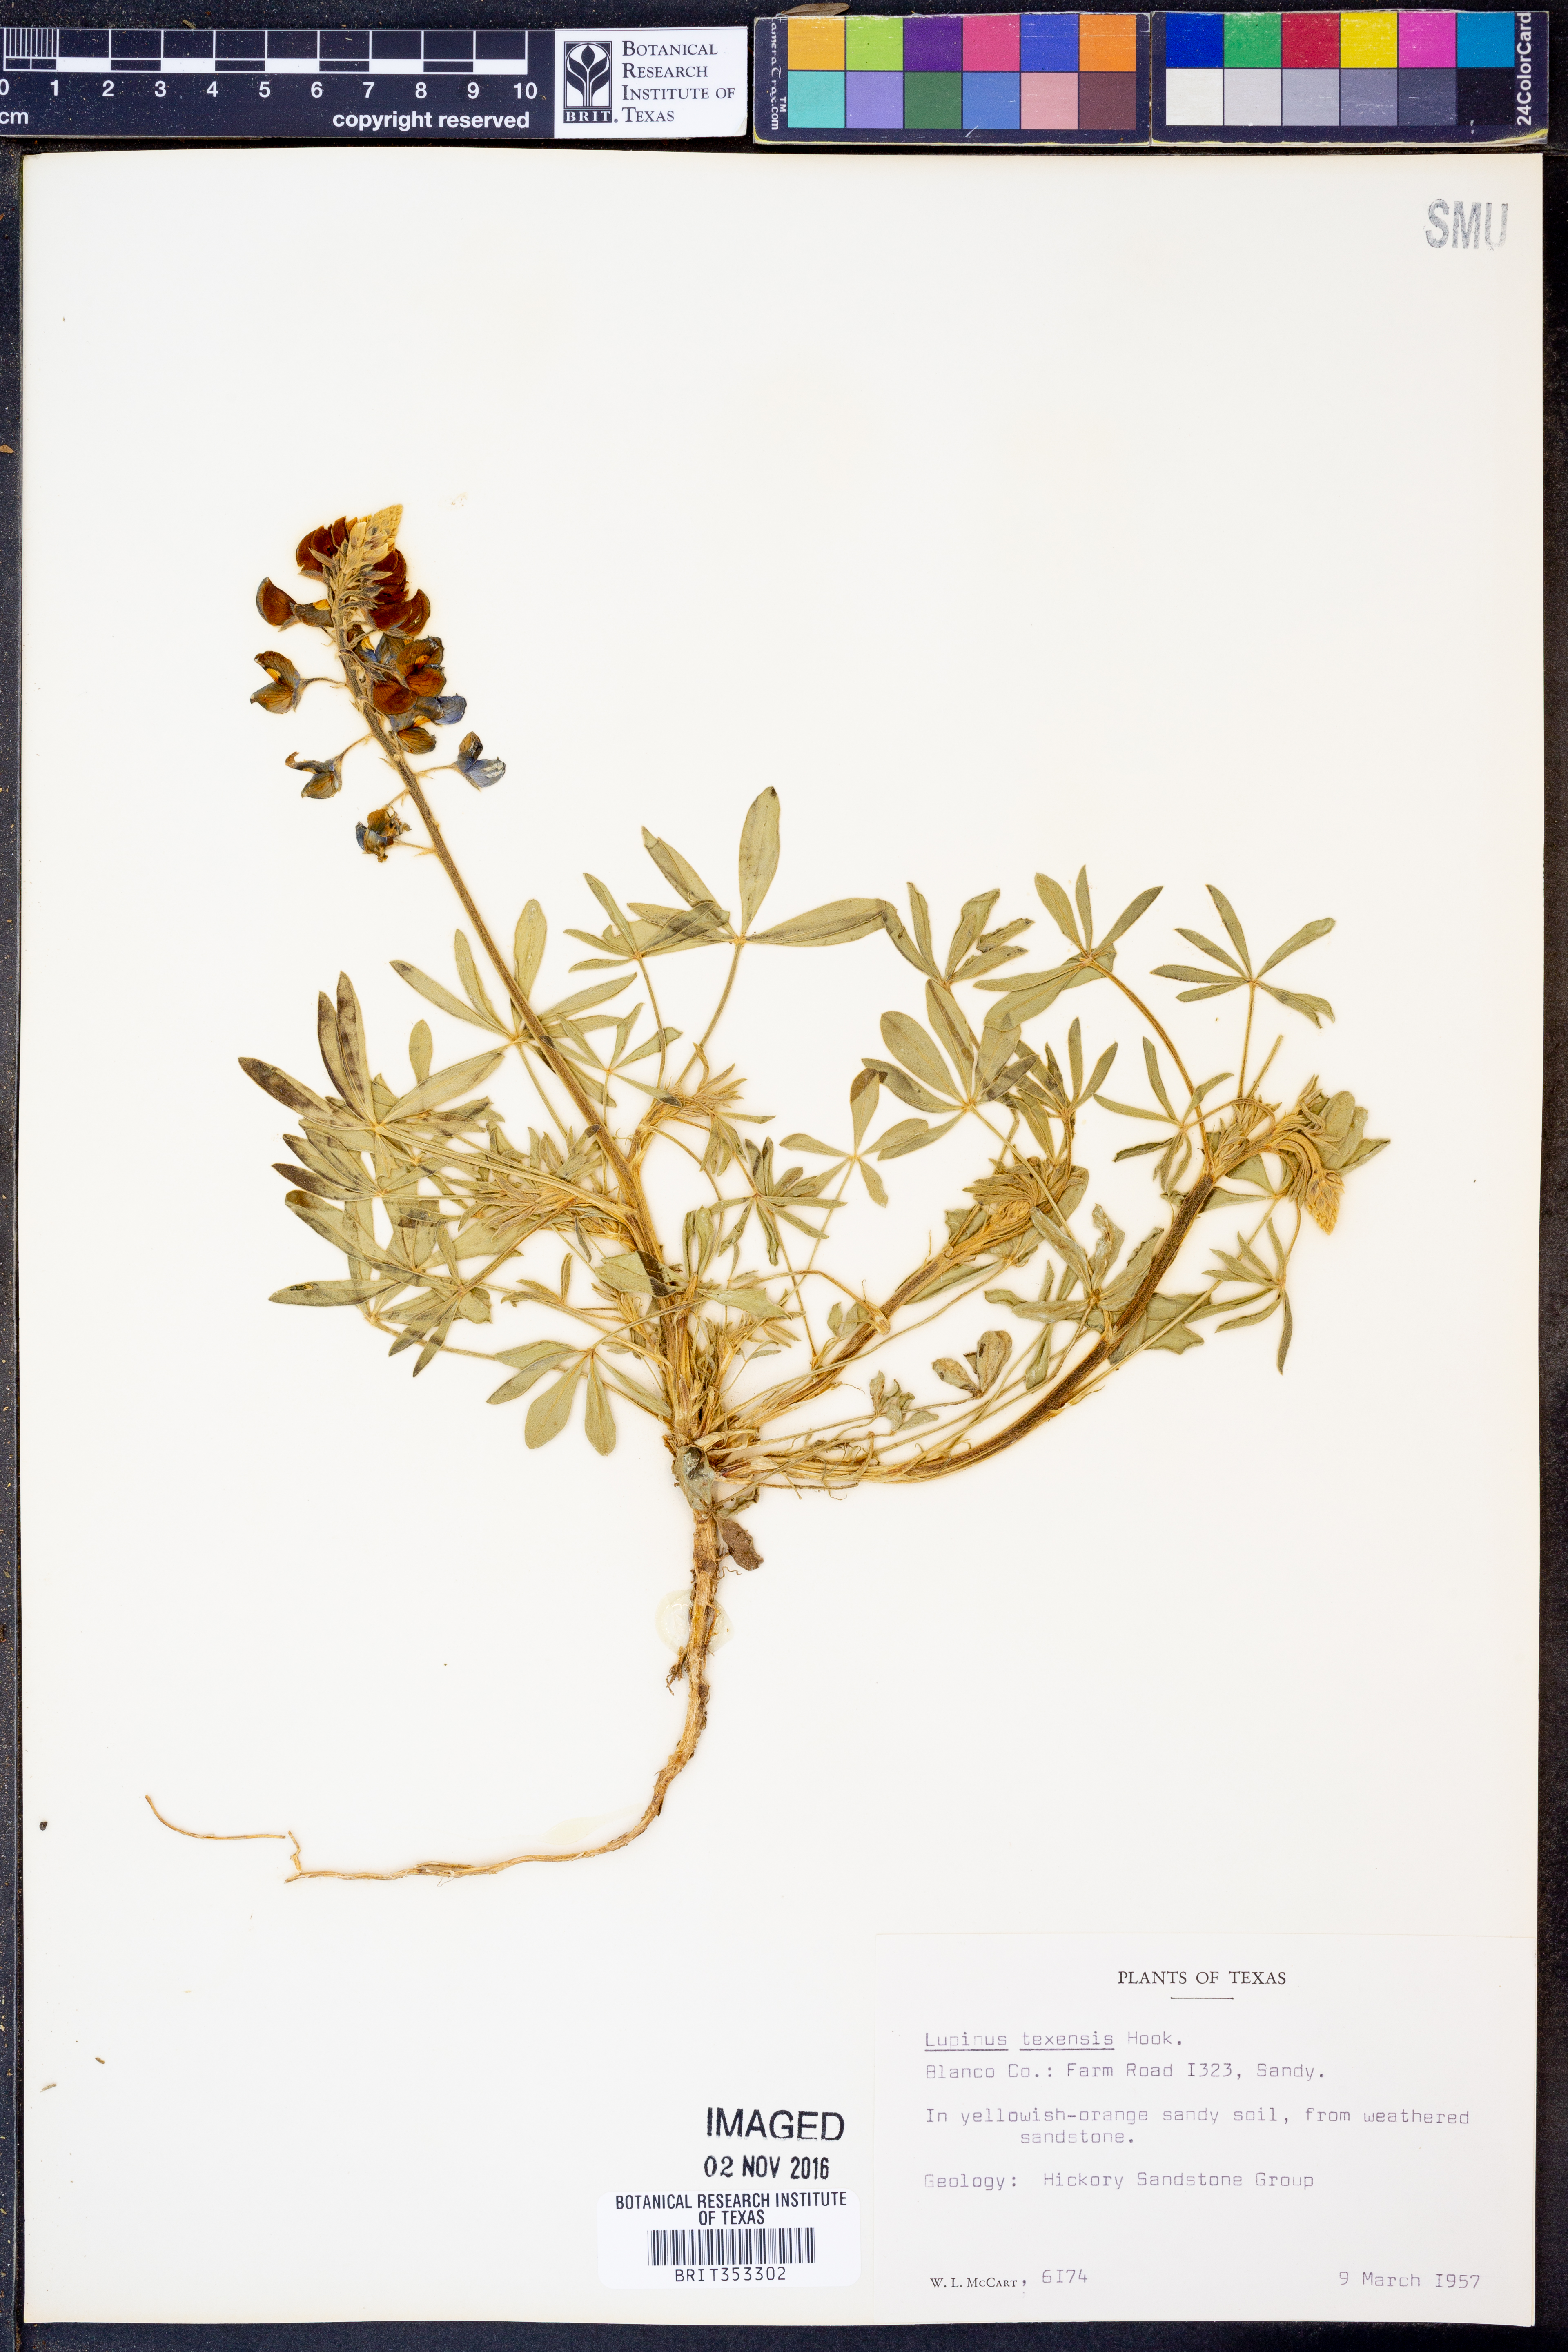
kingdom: Plantae
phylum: Tracheophyta
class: Magnoliopsida
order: Fabales
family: Fabaceae
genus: Lupinus
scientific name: Lupinus texensis
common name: Texas bluebonnet
